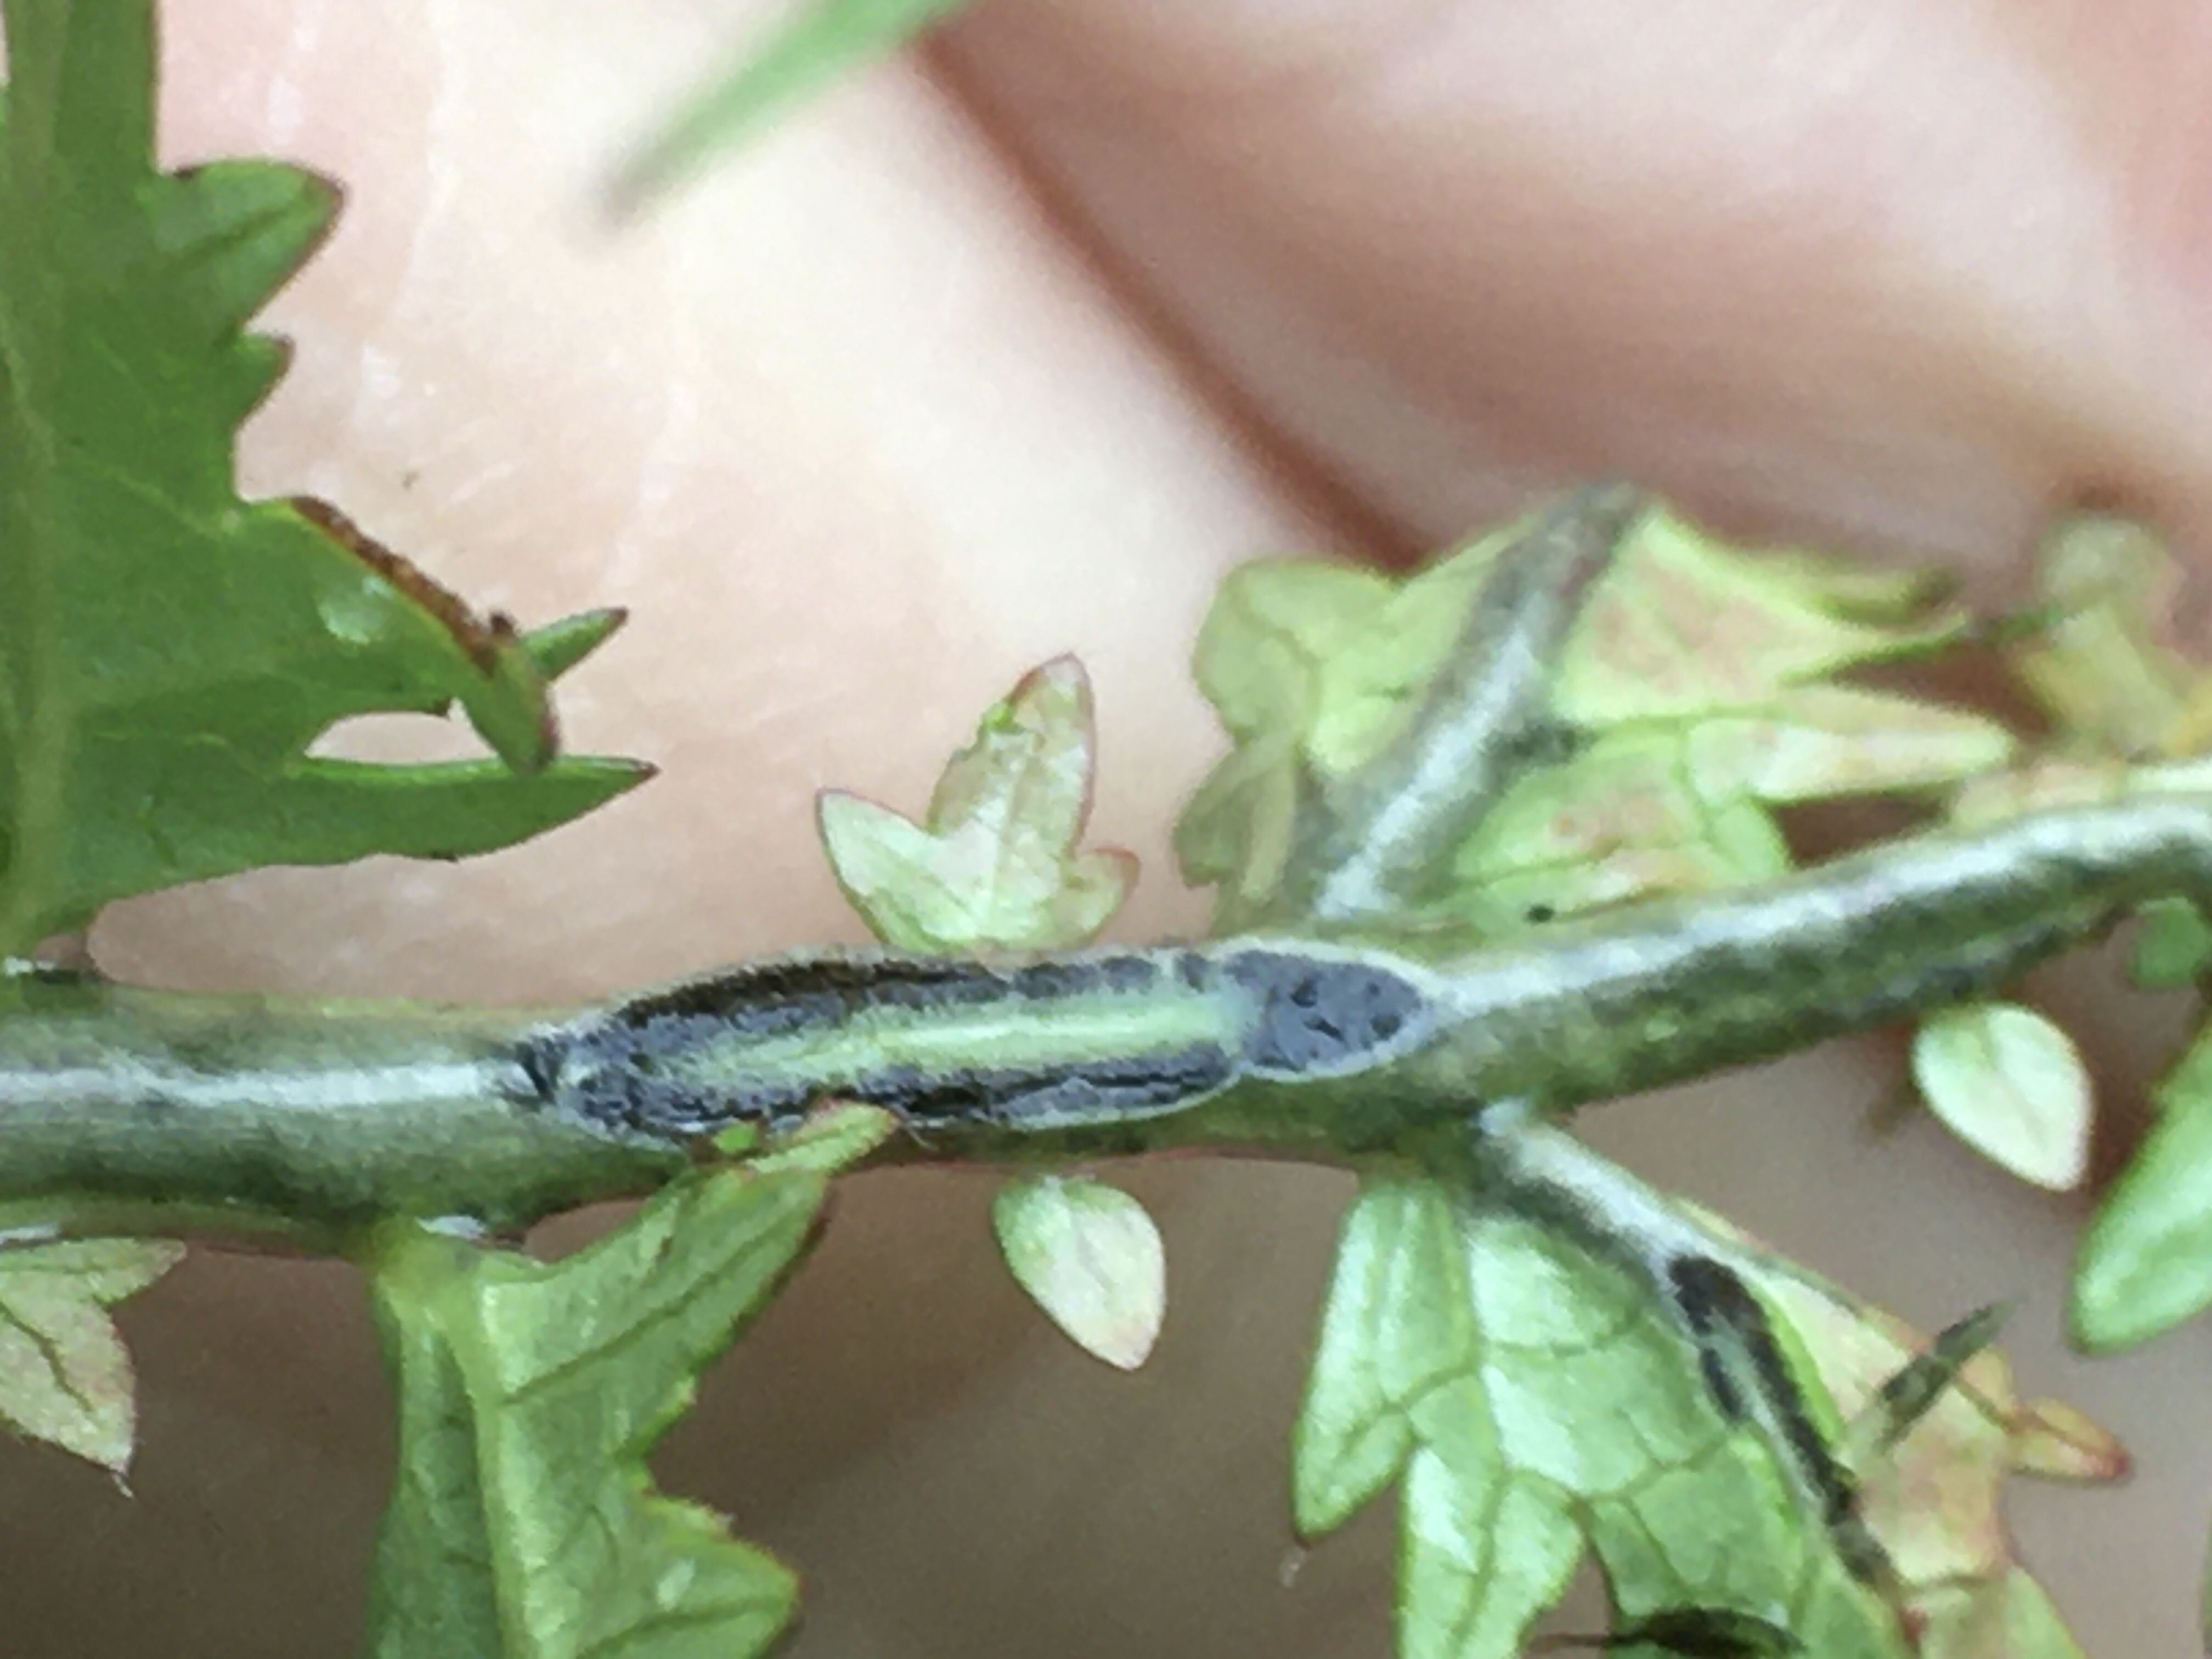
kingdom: Fungi
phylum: Basidiomycota
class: Ustilaginomycetes
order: Urocystidales
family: Urocystidaceae
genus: Urocystis
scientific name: Urocystis filipendulae
